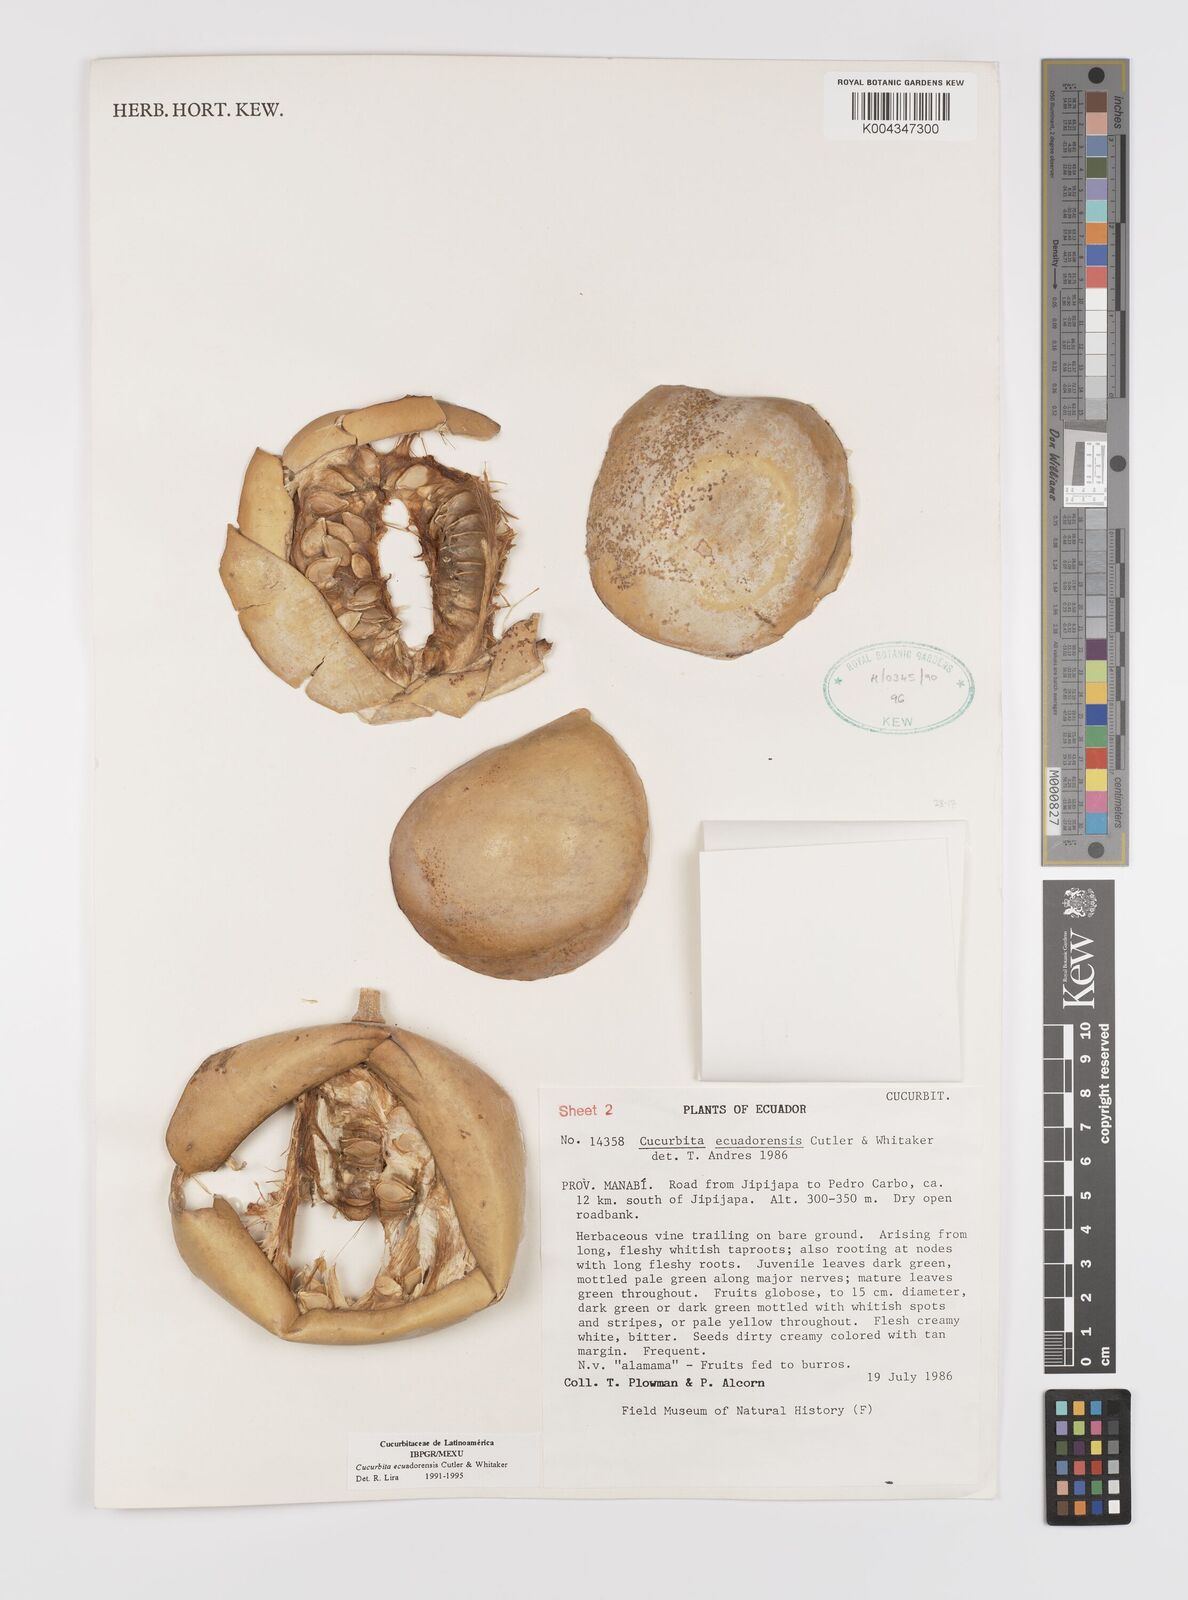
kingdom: Plantae
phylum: Tracheophyta
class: Magnoliopsida
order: Cucurbitales
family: Cucurbitaceae
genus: Cucurbita
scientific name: Cucurbita ecuadorensis
